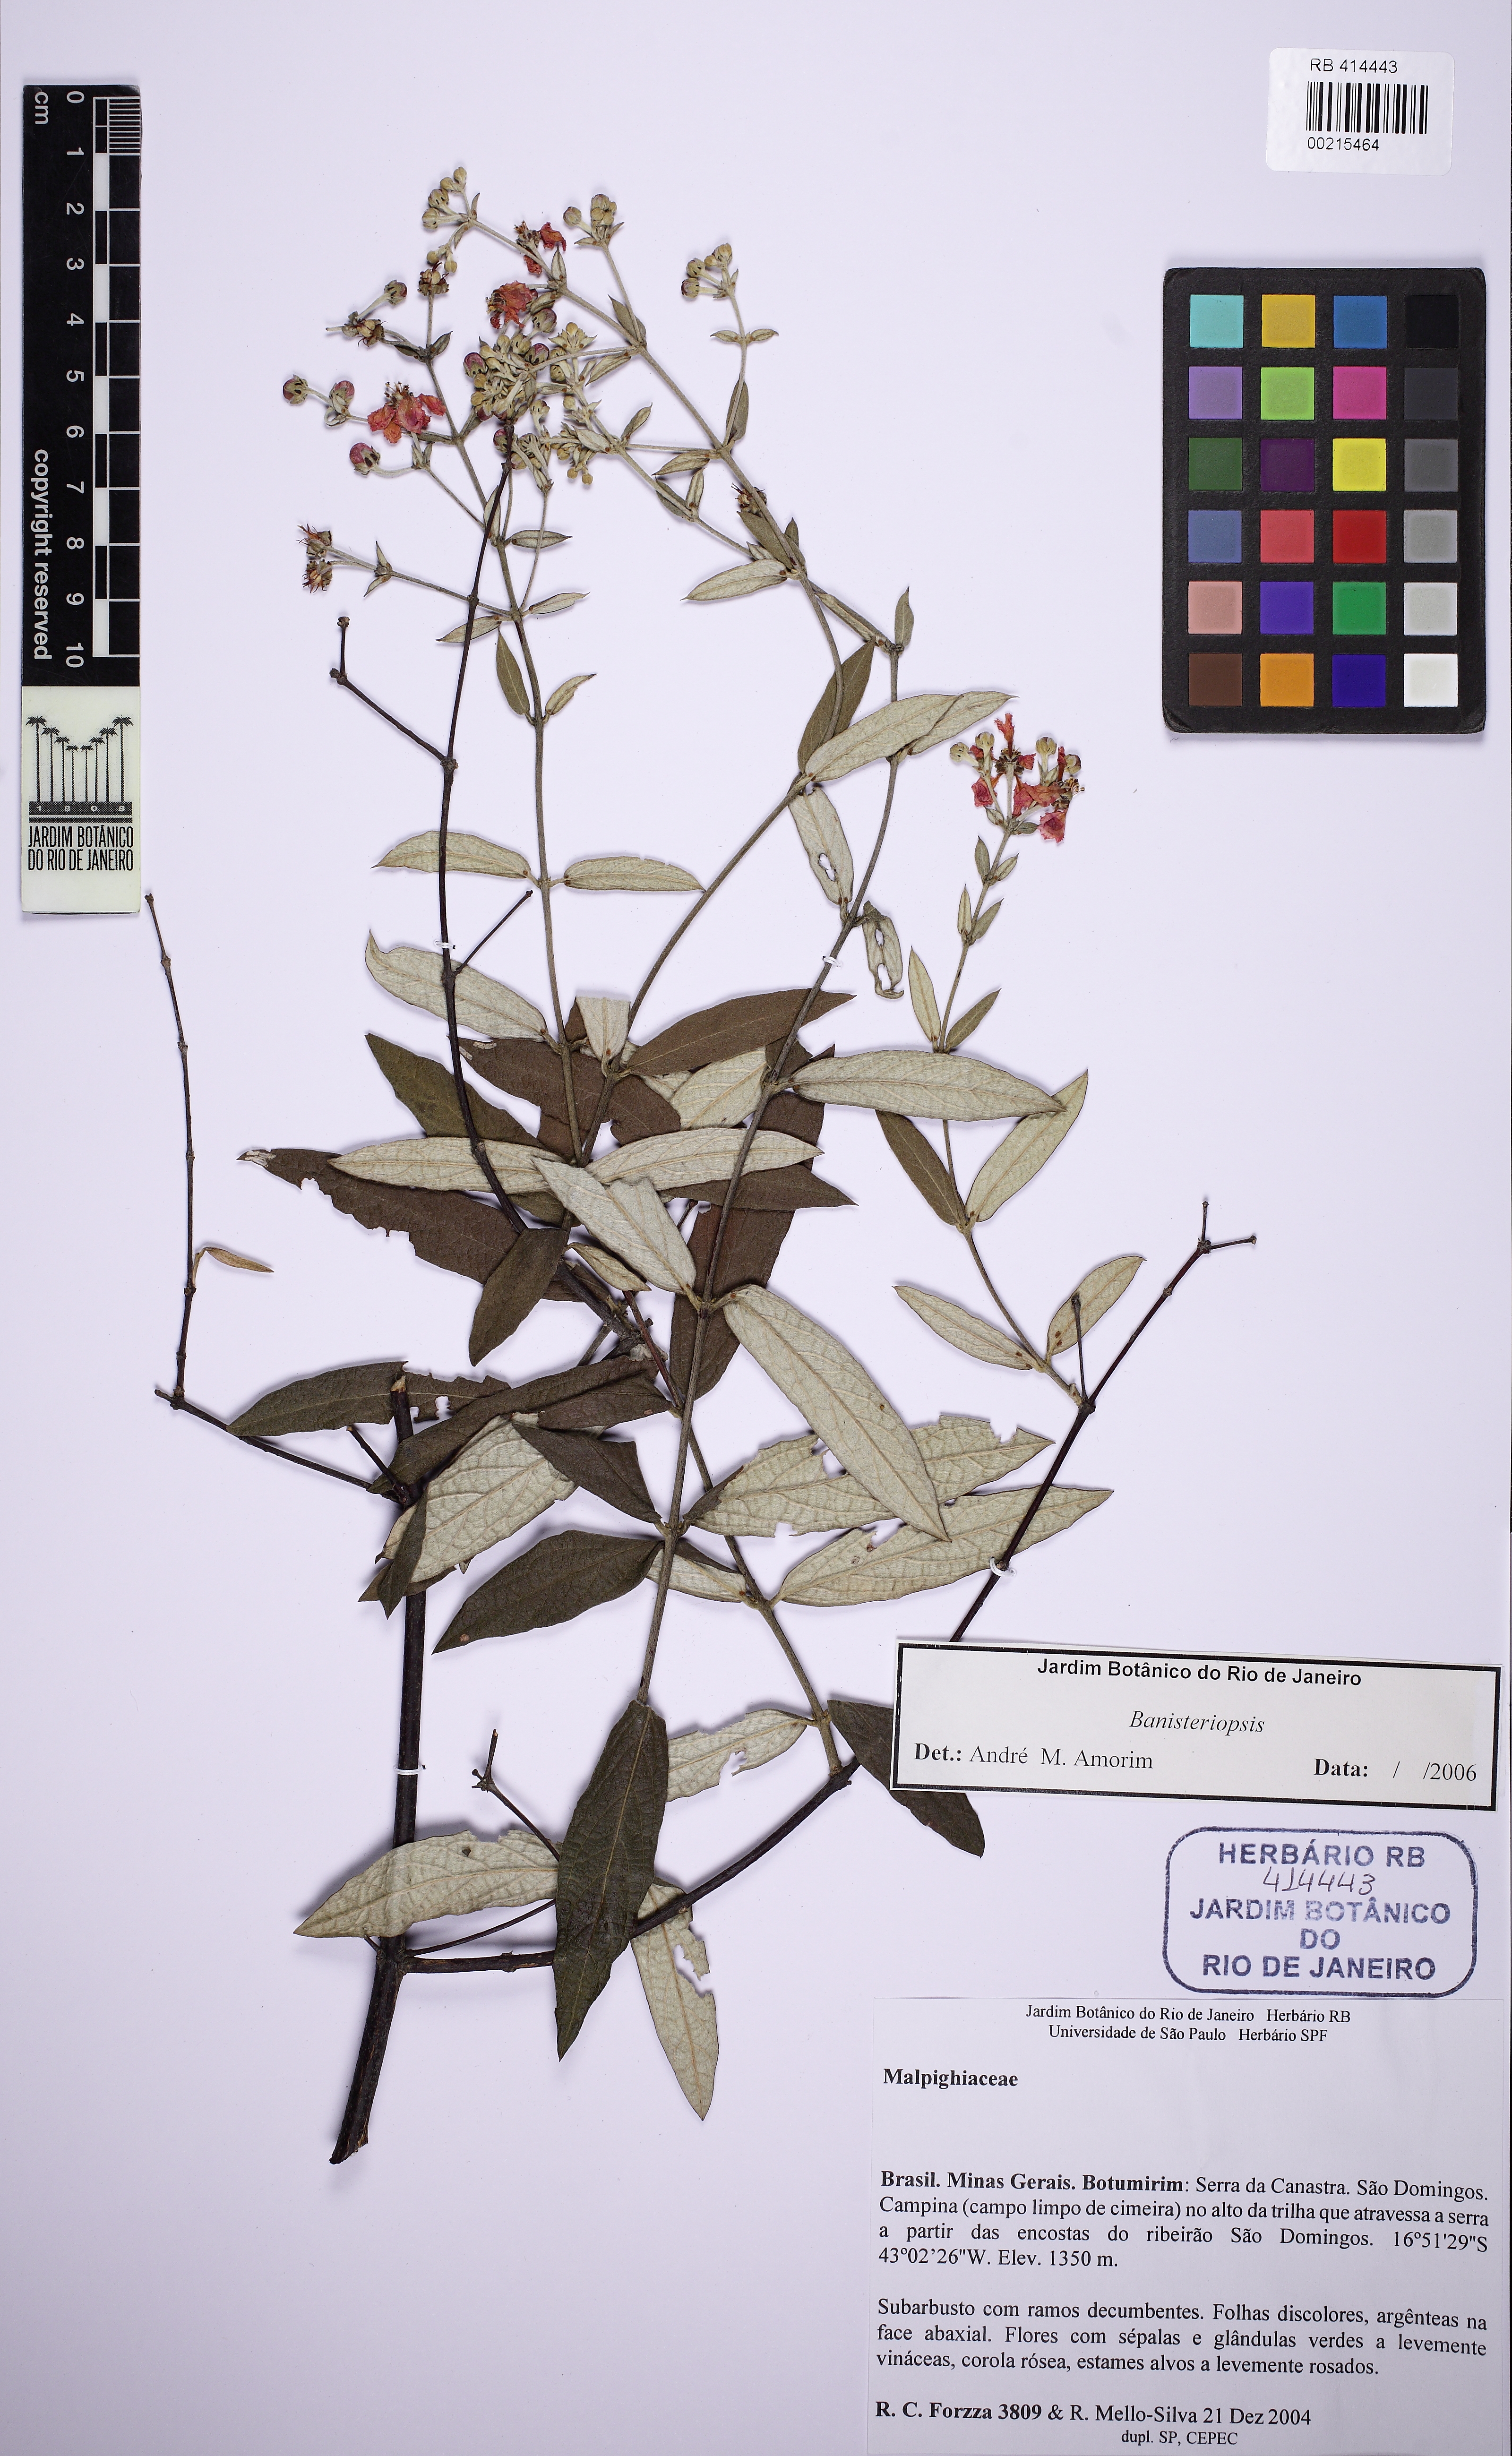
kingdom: Plantae
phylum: Tracheophyta
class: Magnoliopsida
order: Malpighiales
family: Malpighiaceae
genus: Banisteriopsis
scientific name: Banisteriopsis
